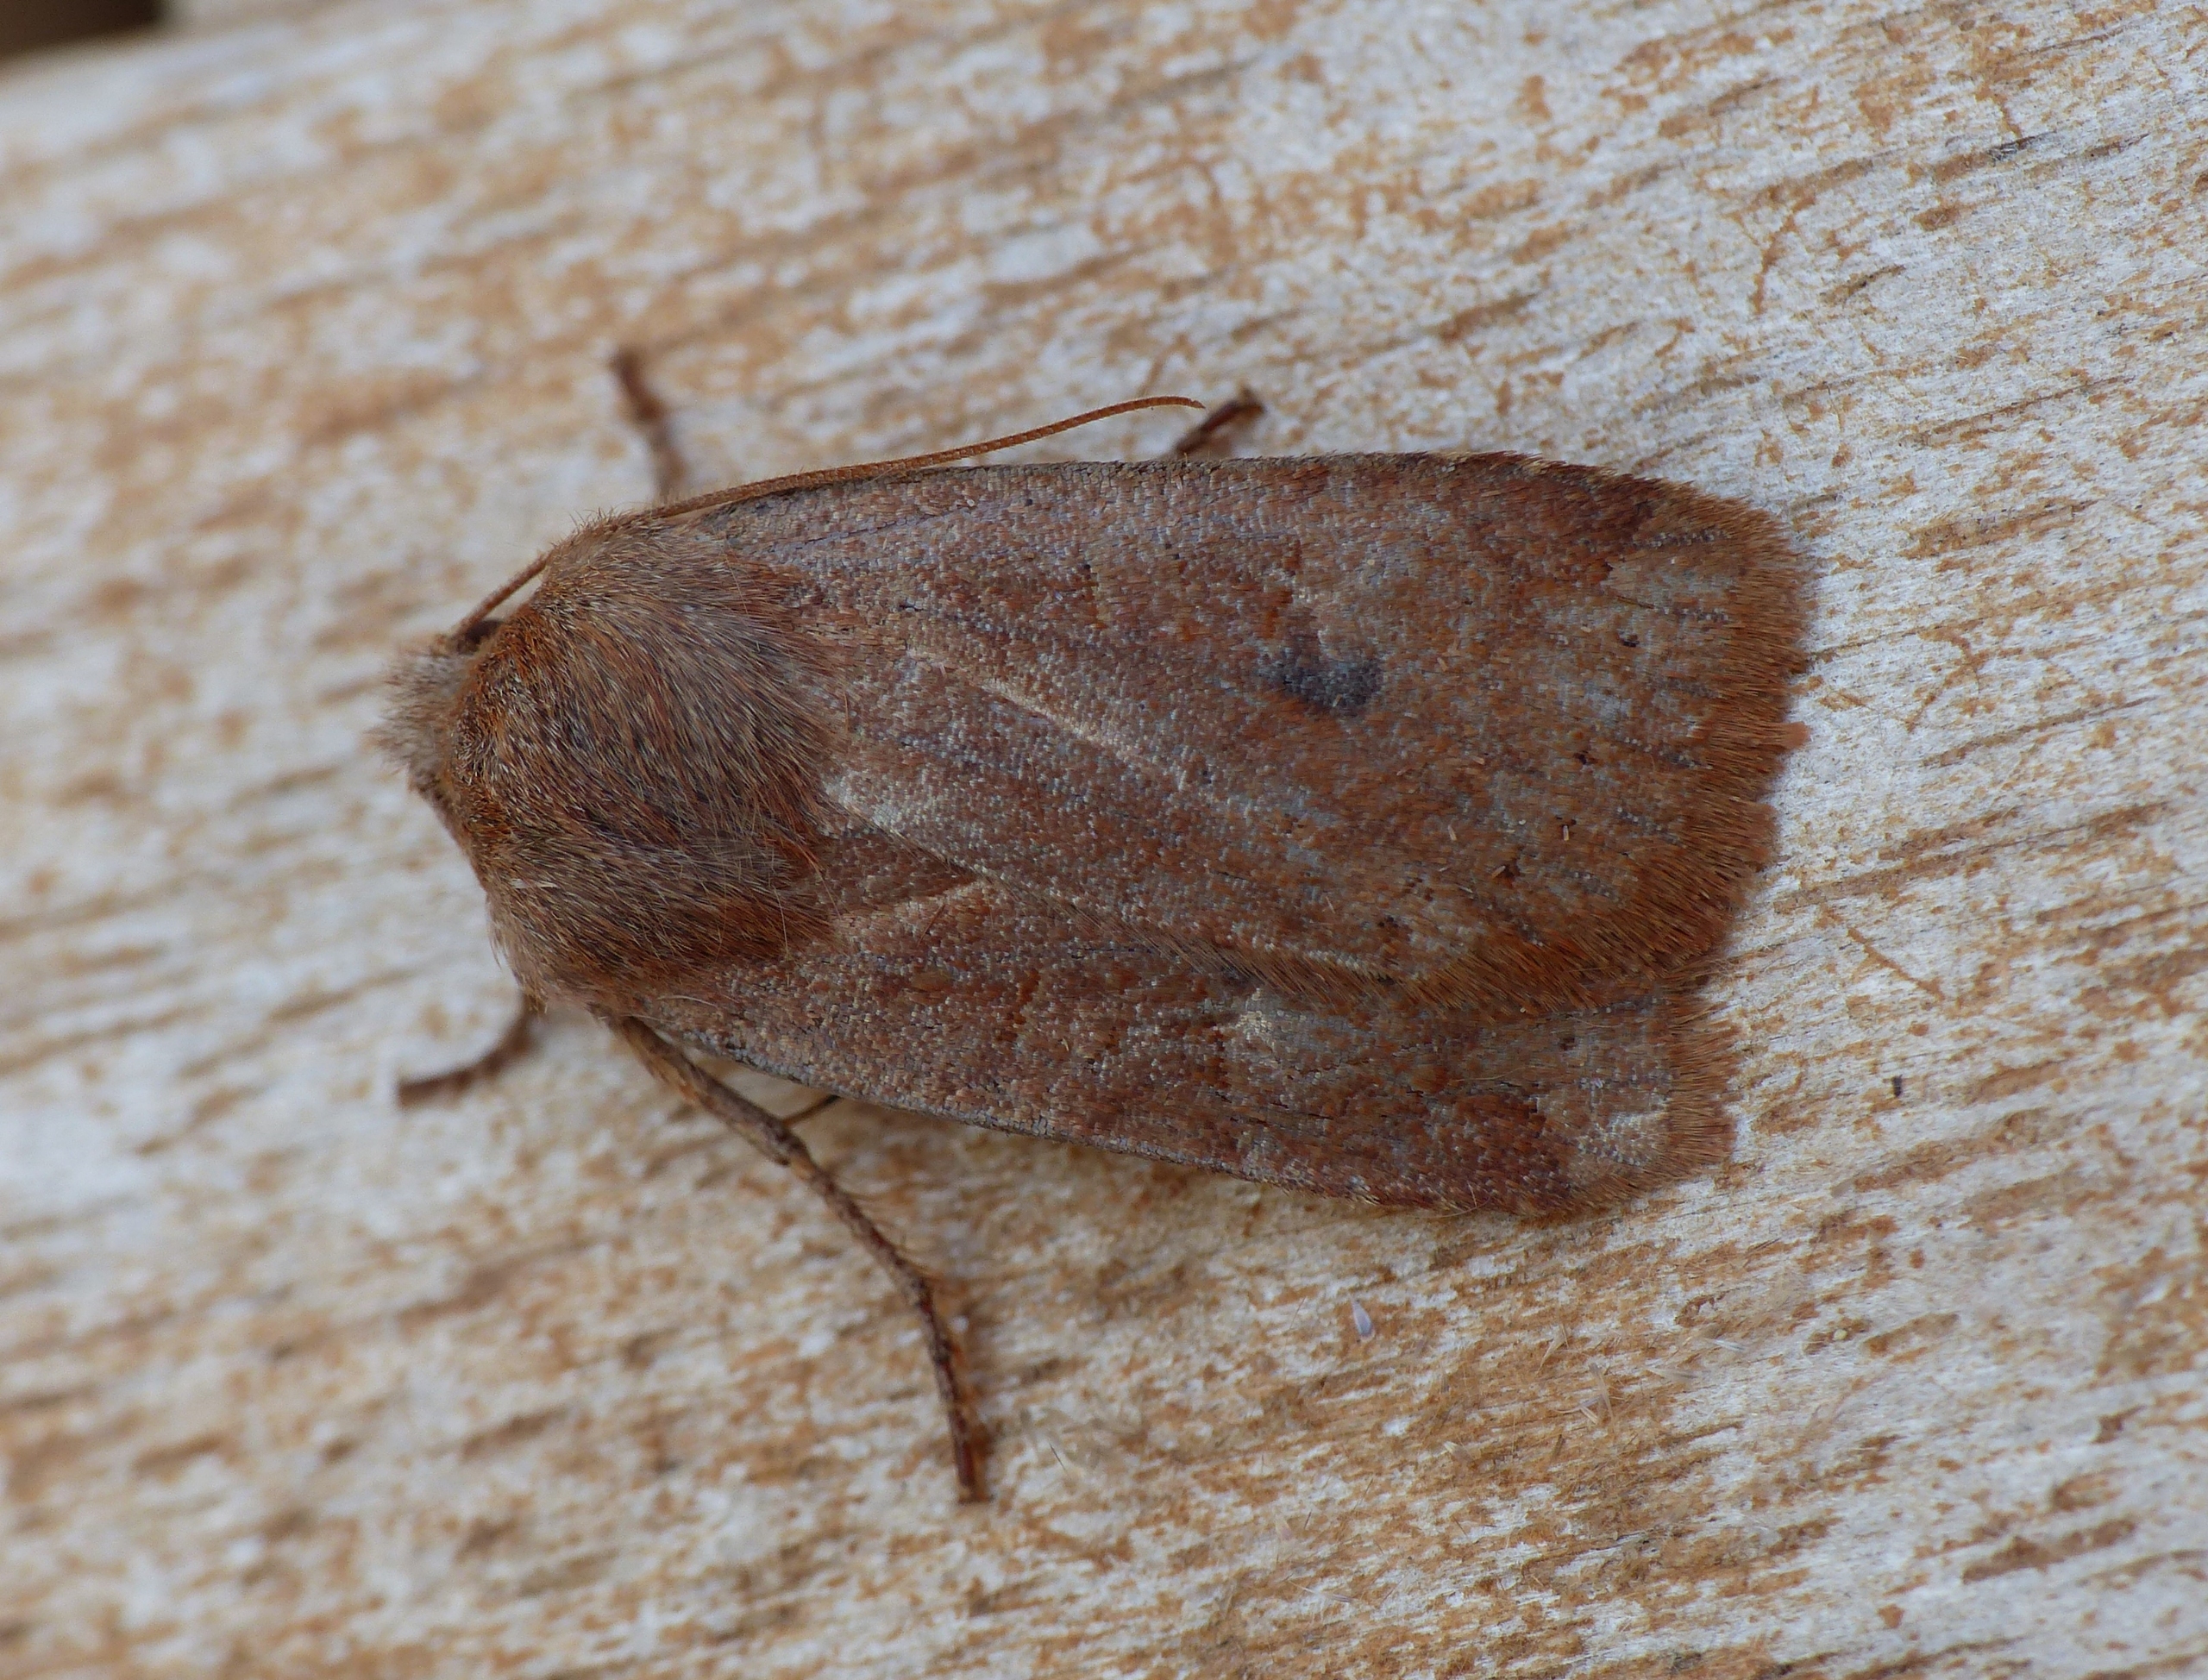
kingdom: Animalia
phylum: Arthropoda
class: Insecta
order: Lepidoptera
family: Noctuidae
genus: Conistra
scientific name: Conistra vaccinii
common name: Blåbærugle
